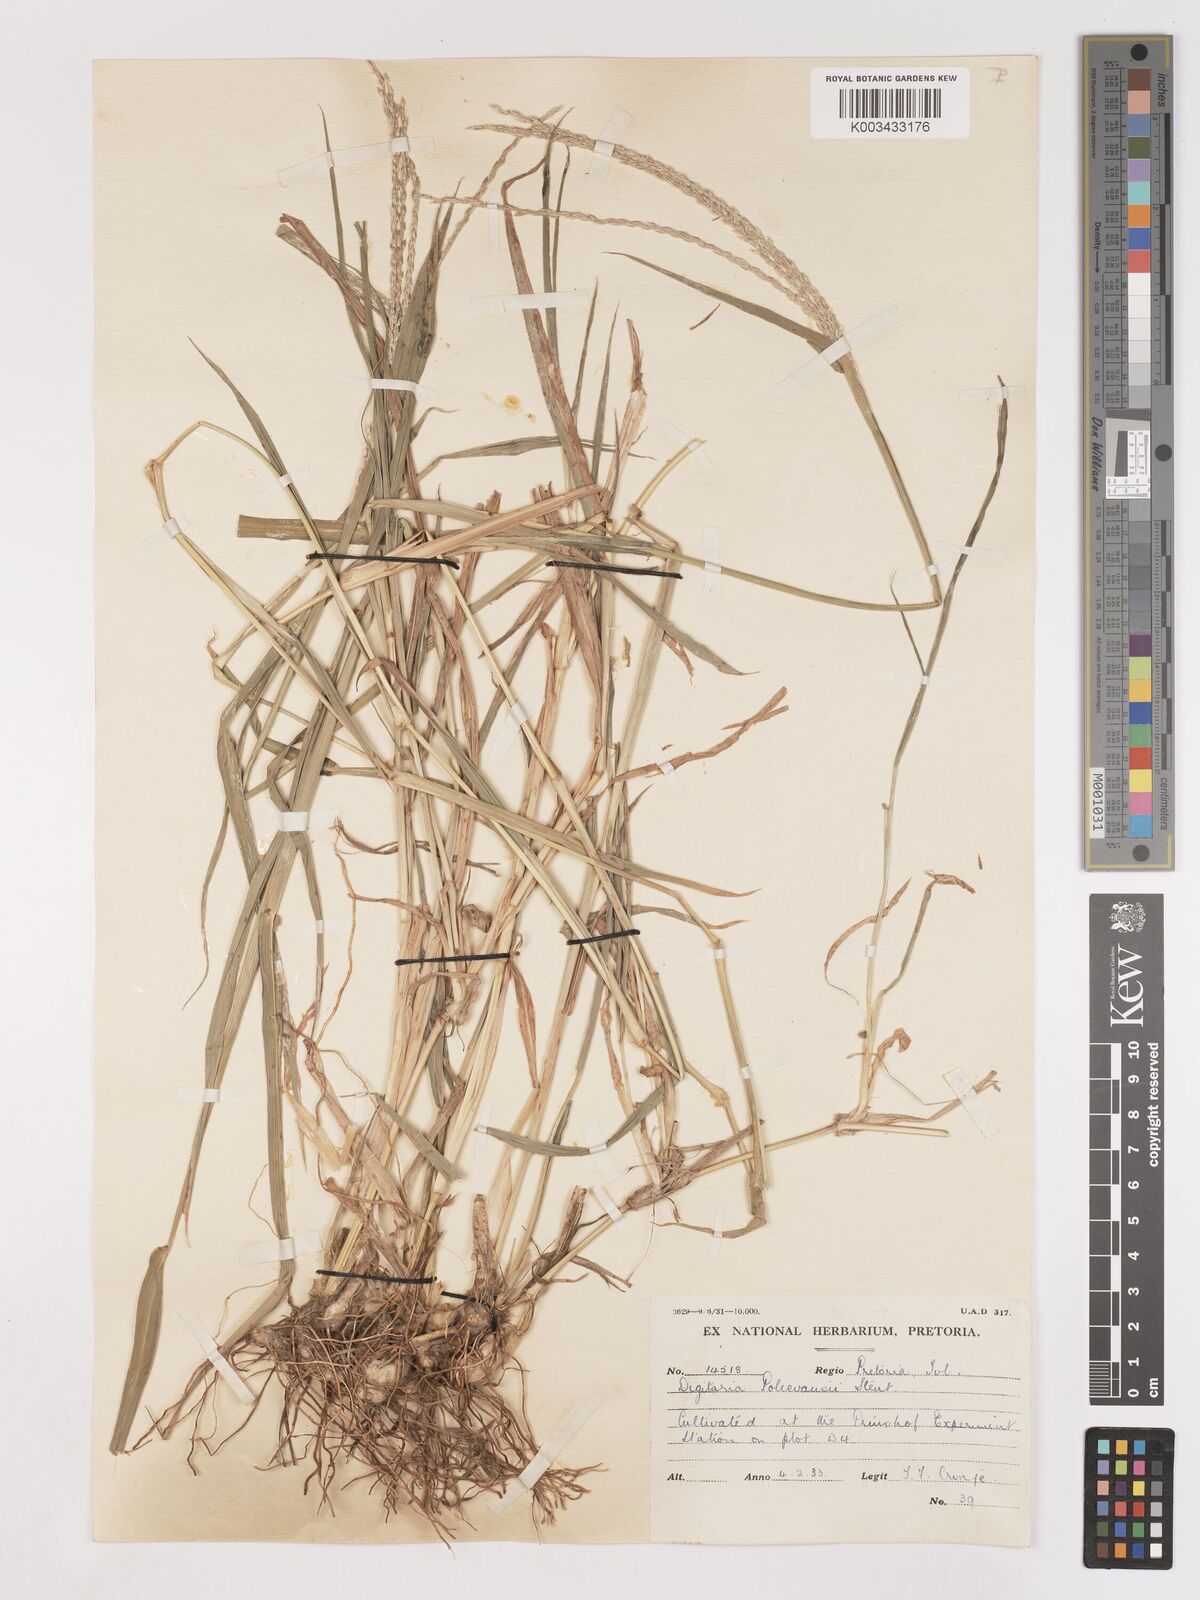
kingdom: Plantae
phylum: Tracheophyta
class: Liliopsida
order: Poales
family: Poaceae
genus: Digitaria
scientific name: Digitaria milanjiana
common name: Madagascar crabgrass
